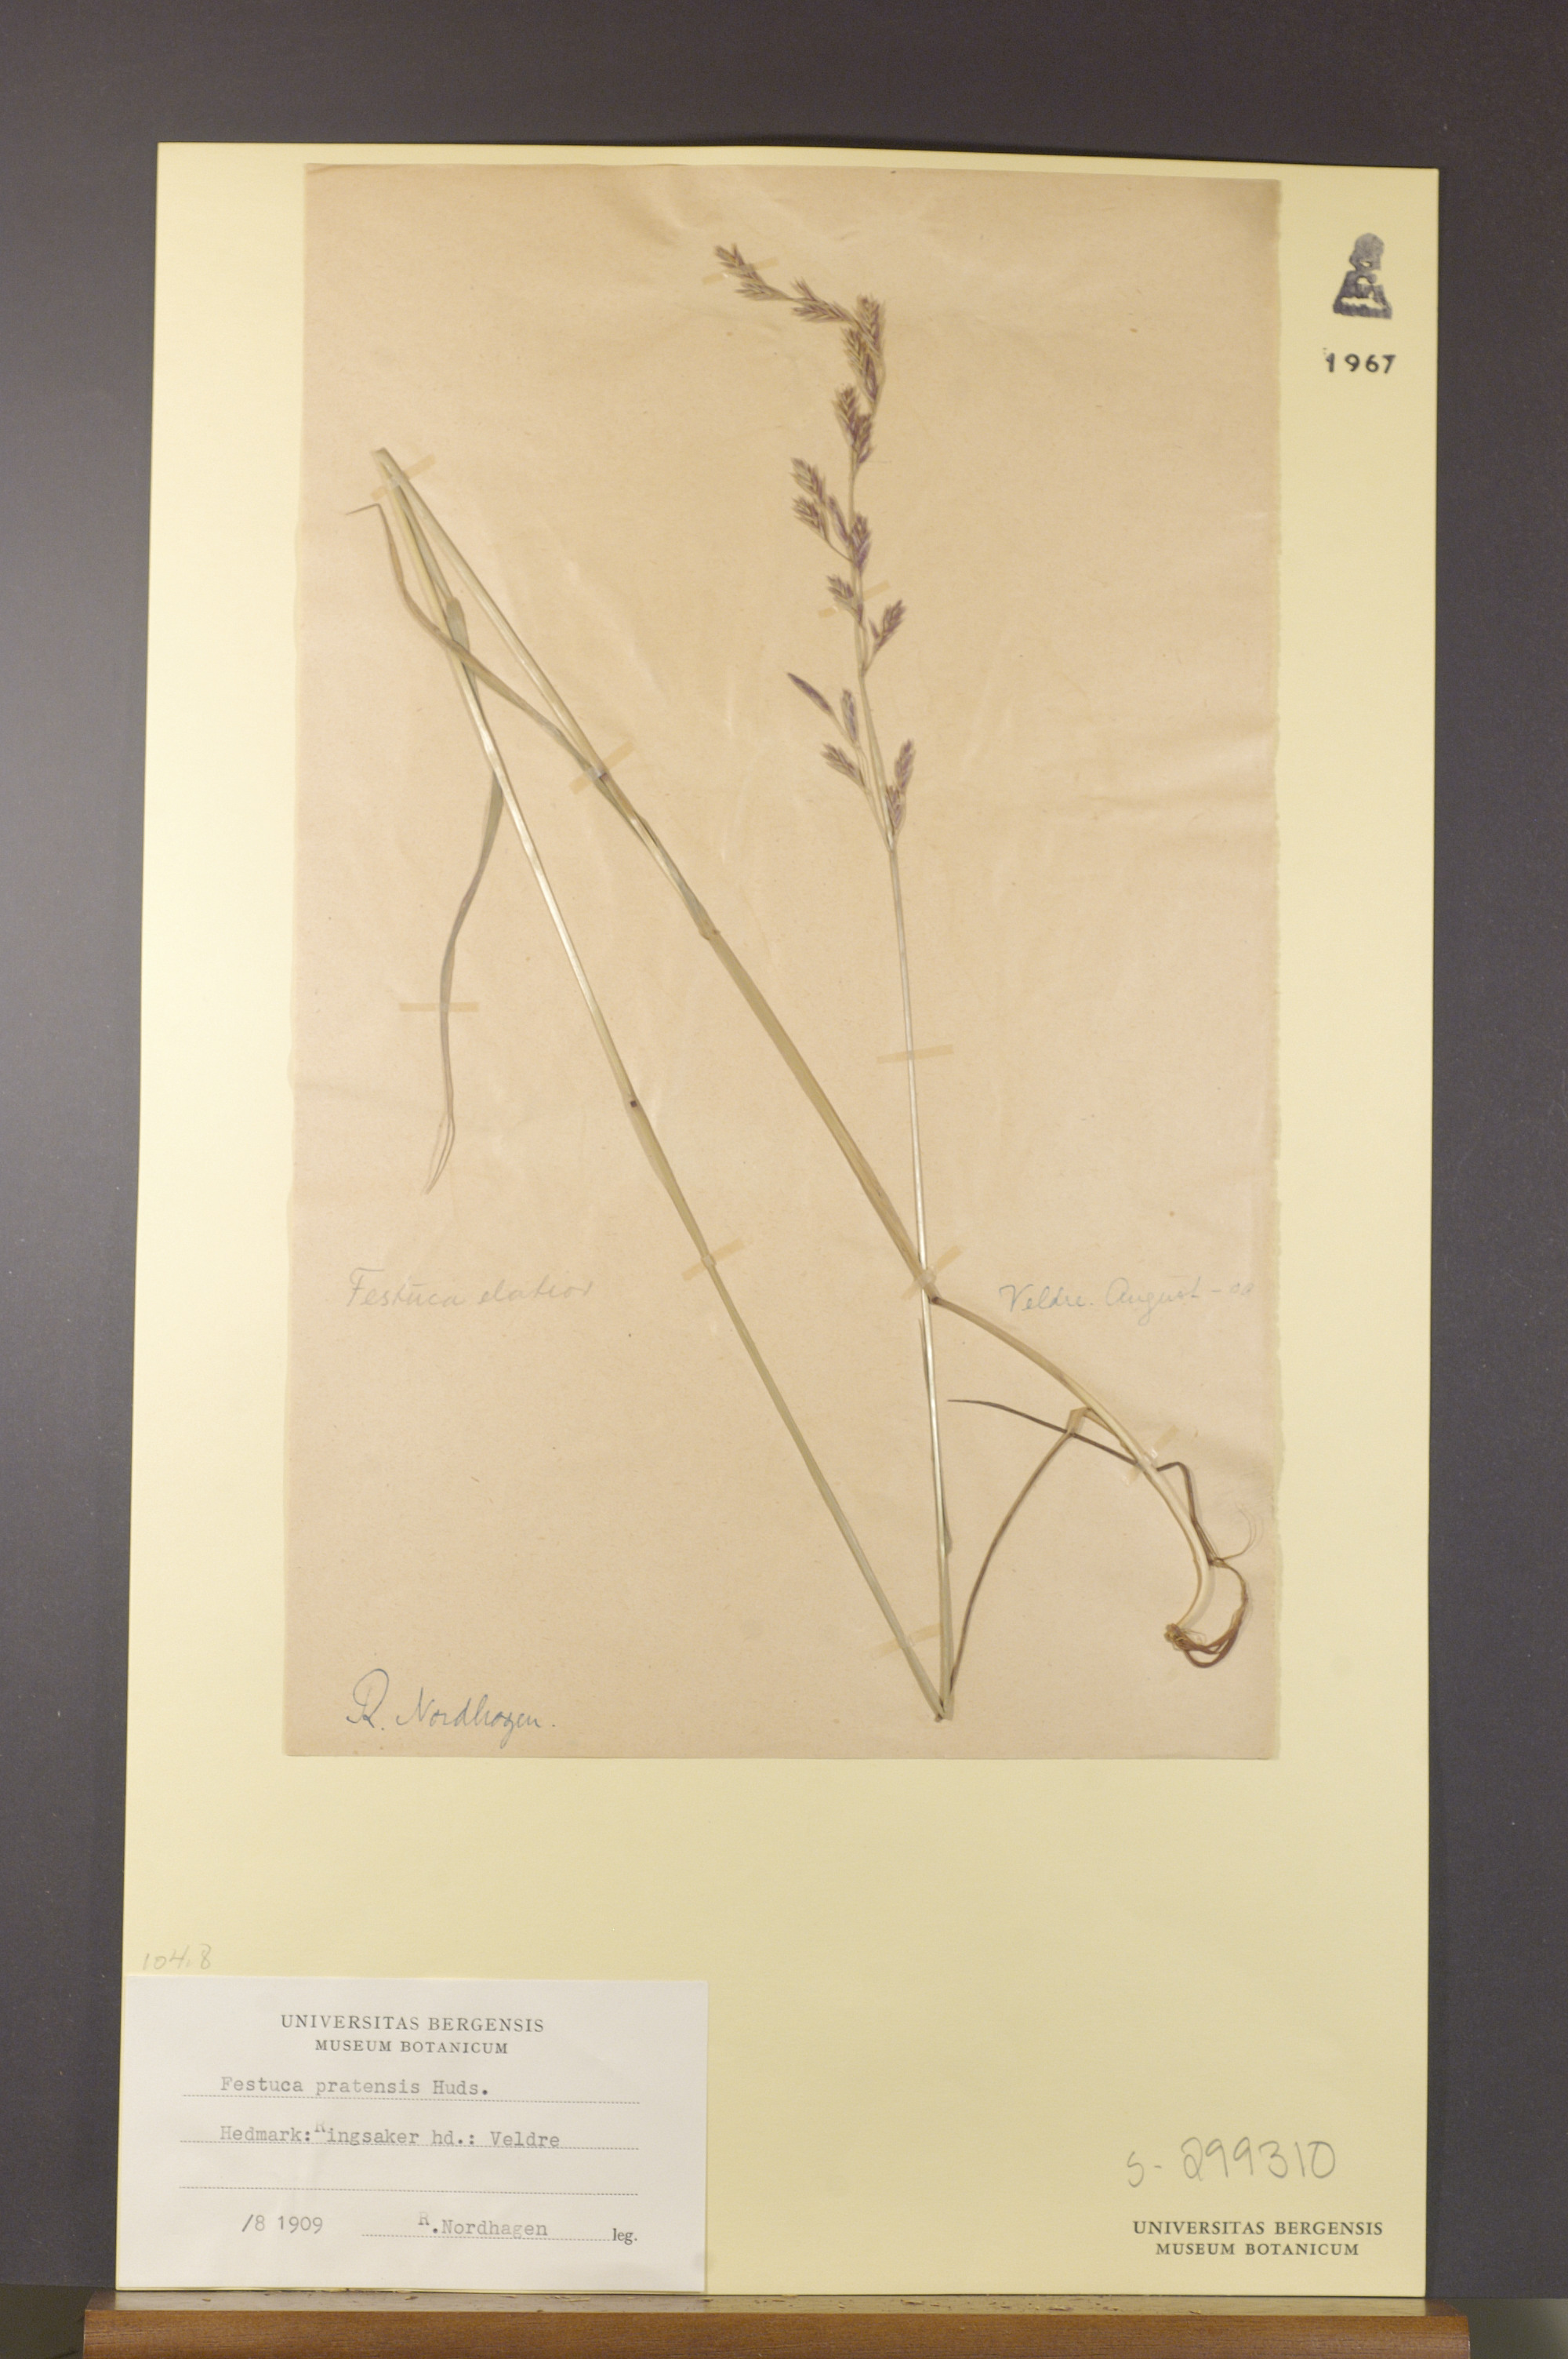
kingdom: Plantae
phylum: Tracheophyta
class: Liliopsida
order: Poales
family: Poaceae
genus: Lolium
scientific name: Lolium pratense
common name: Dover grass
